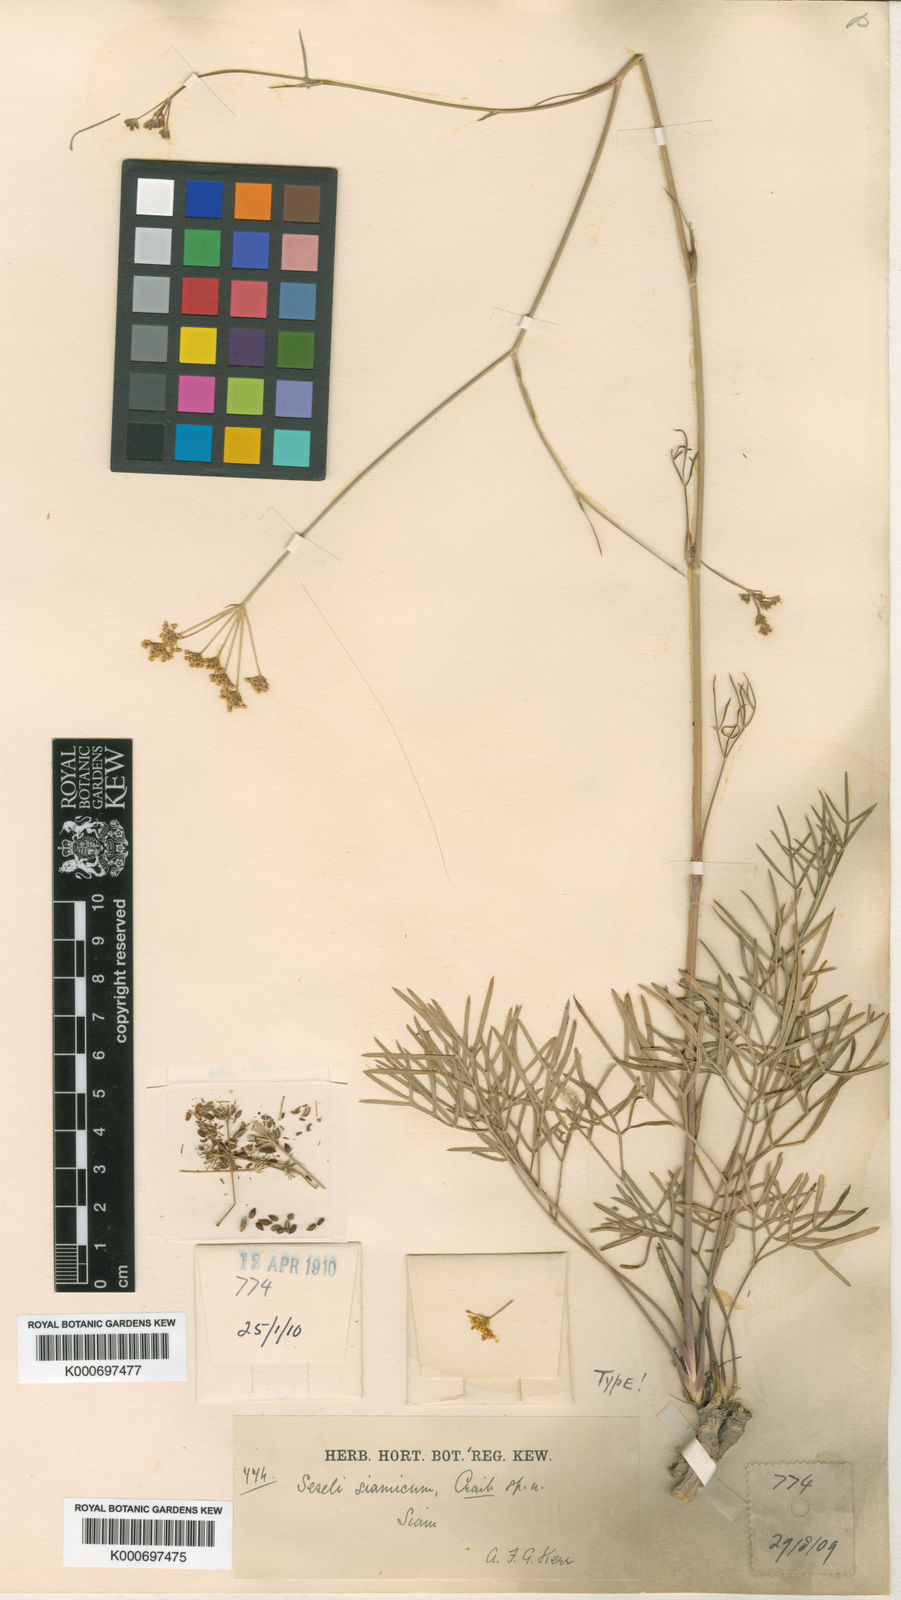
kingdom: Plantae
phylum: Tracheophyta
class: Magnoliopsida
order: Apiales
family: Apiaceae
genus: Seseli
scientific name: Seseli yunnanense
